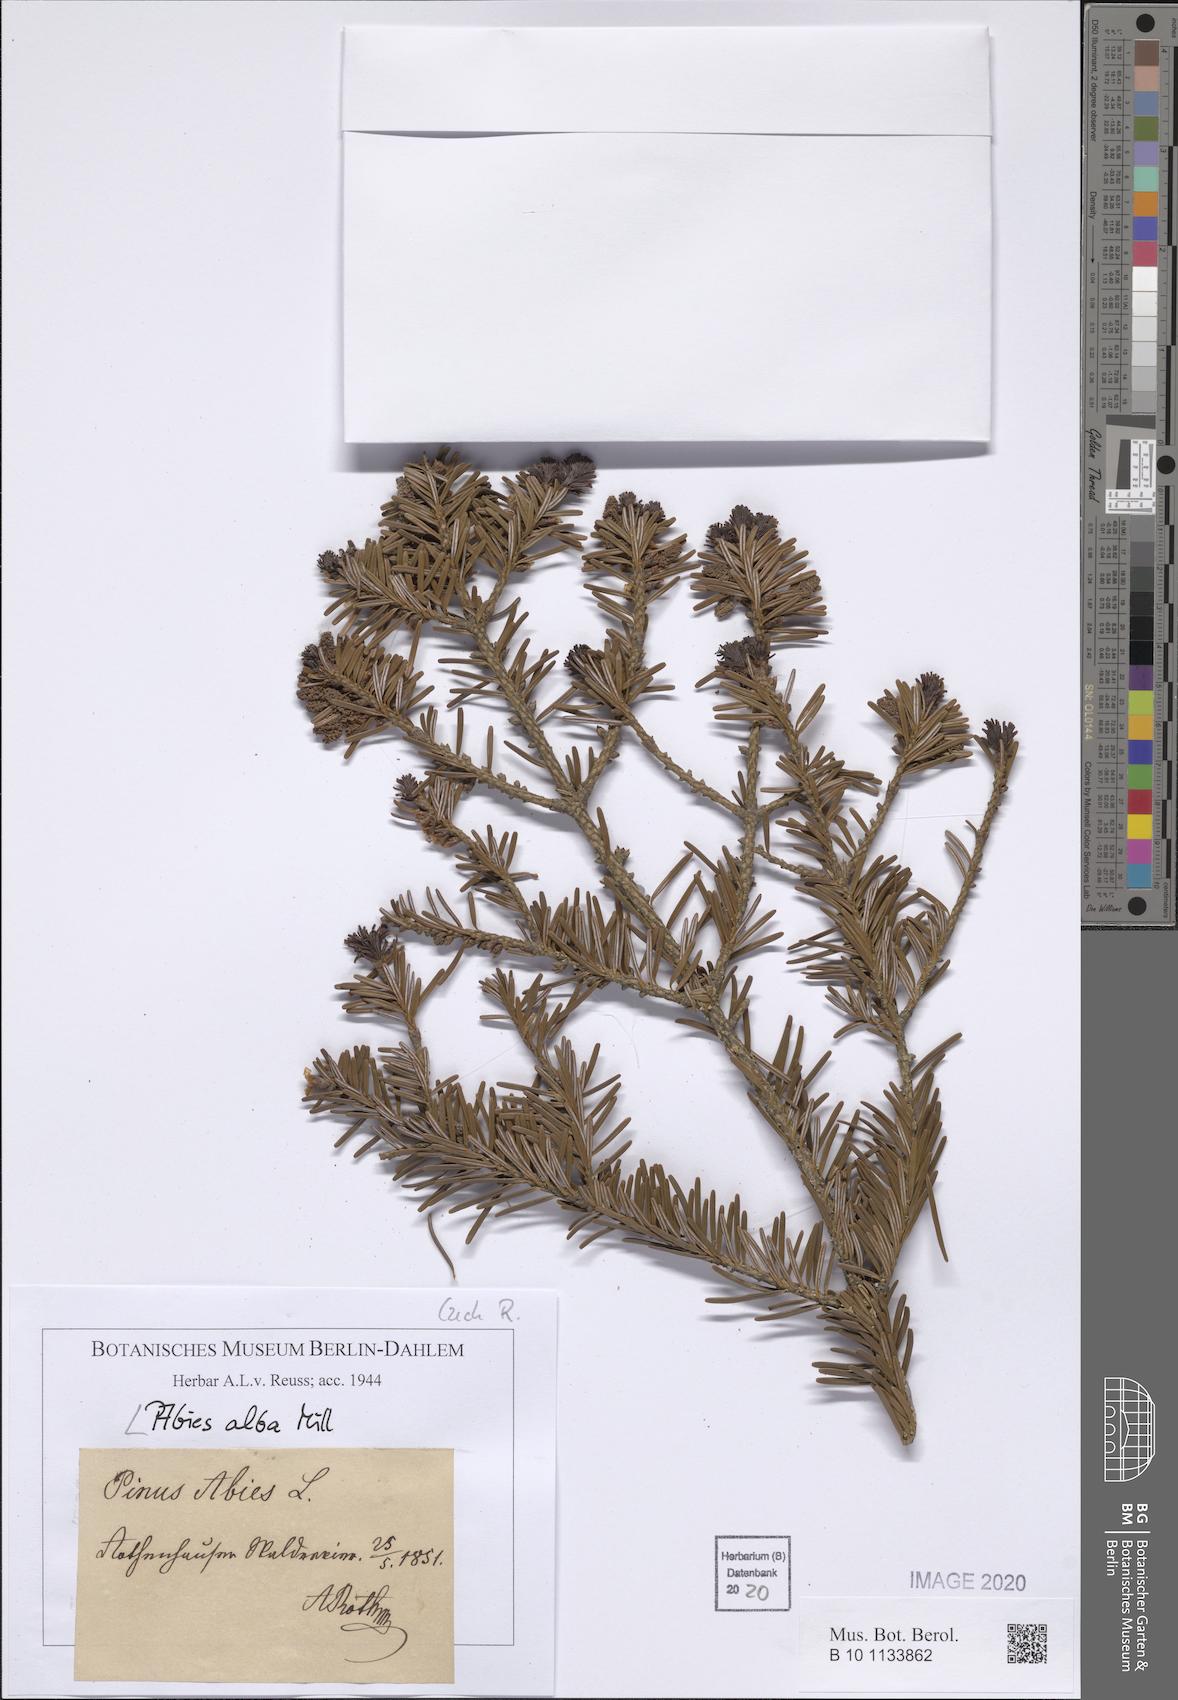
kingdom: Plantae
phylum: Tracheophyta
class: Pinopsida
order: Pinales
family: Pinaceae
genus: Abies
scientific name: Abies alba
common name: Silver fir
